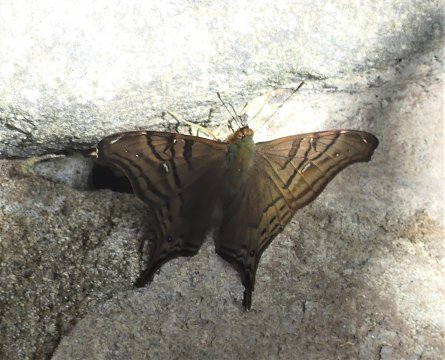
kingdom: Animalia
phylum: Arthropoda
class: Insecta
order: Lepidoptera
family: Nymphalidae
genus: Hypanartia
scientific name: Hypanartia dione
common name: Banded Mapwing
